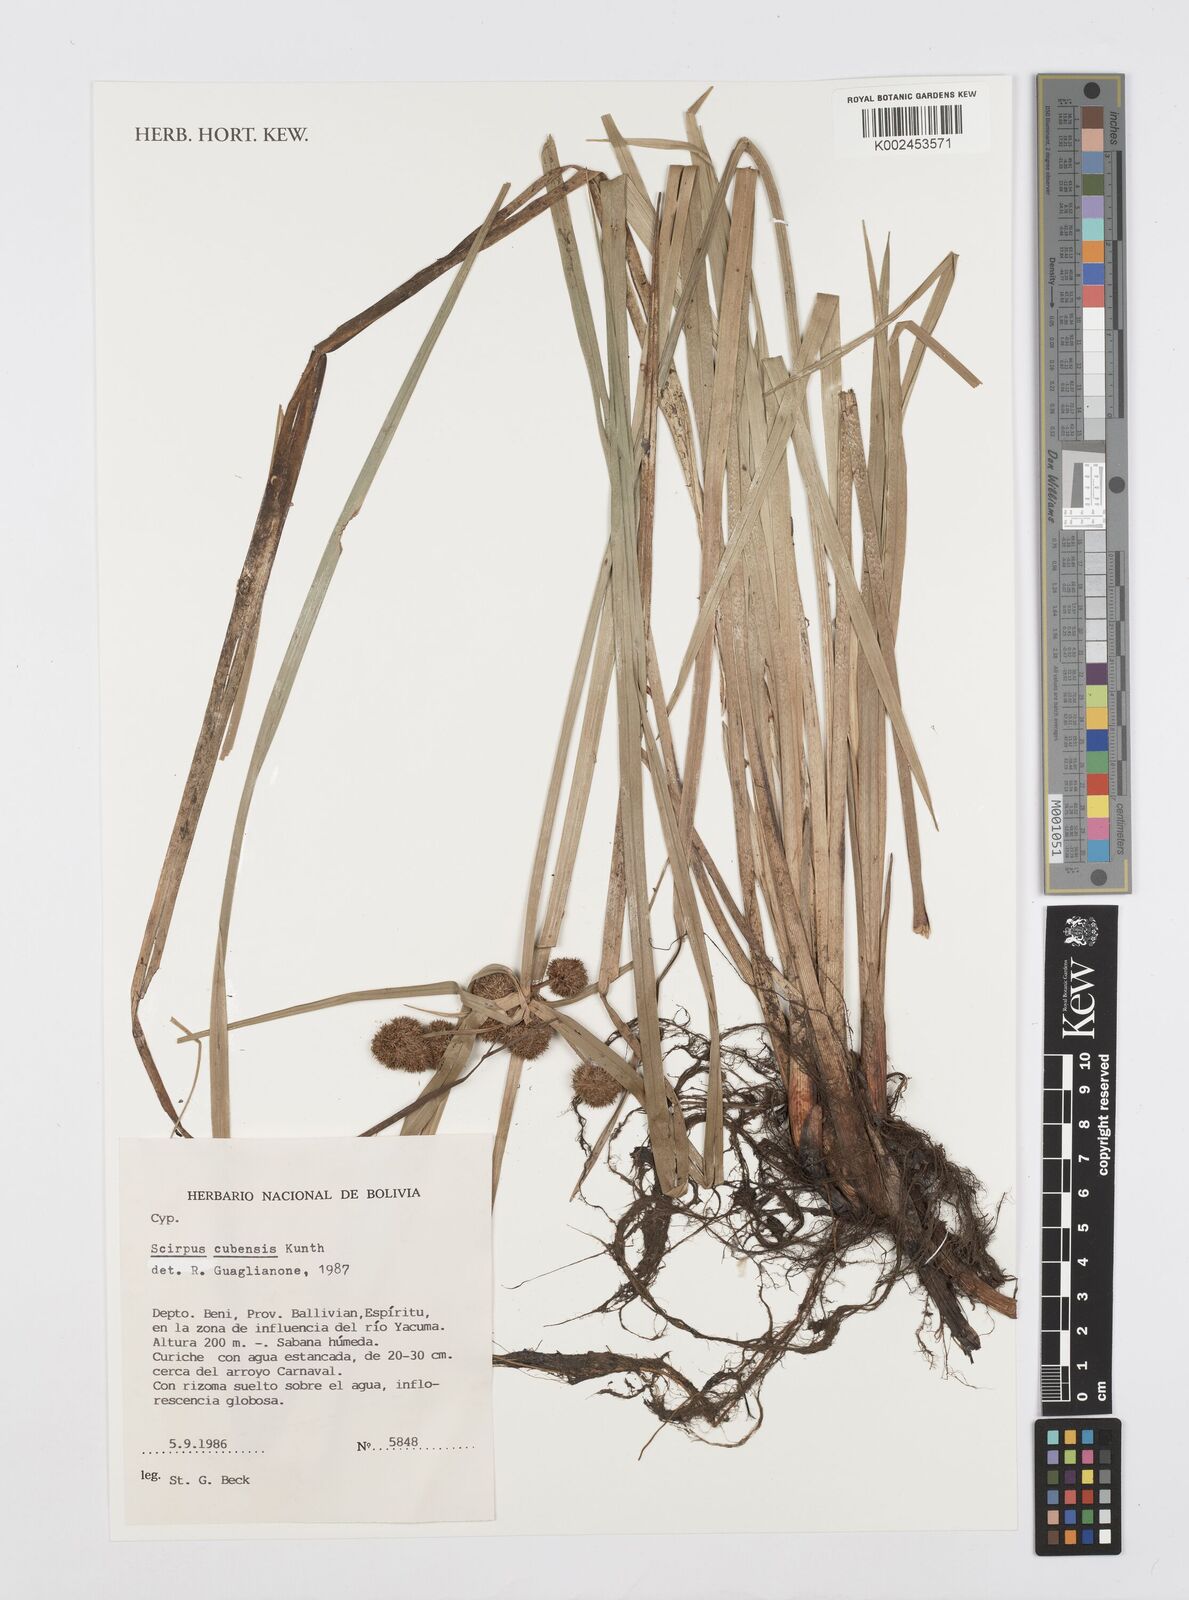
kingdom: Plantae
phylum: Tracheophyta
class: Liliopsida
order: Poales
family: Cyperaceae
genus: Cyperus
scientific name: Cyperus elegans
